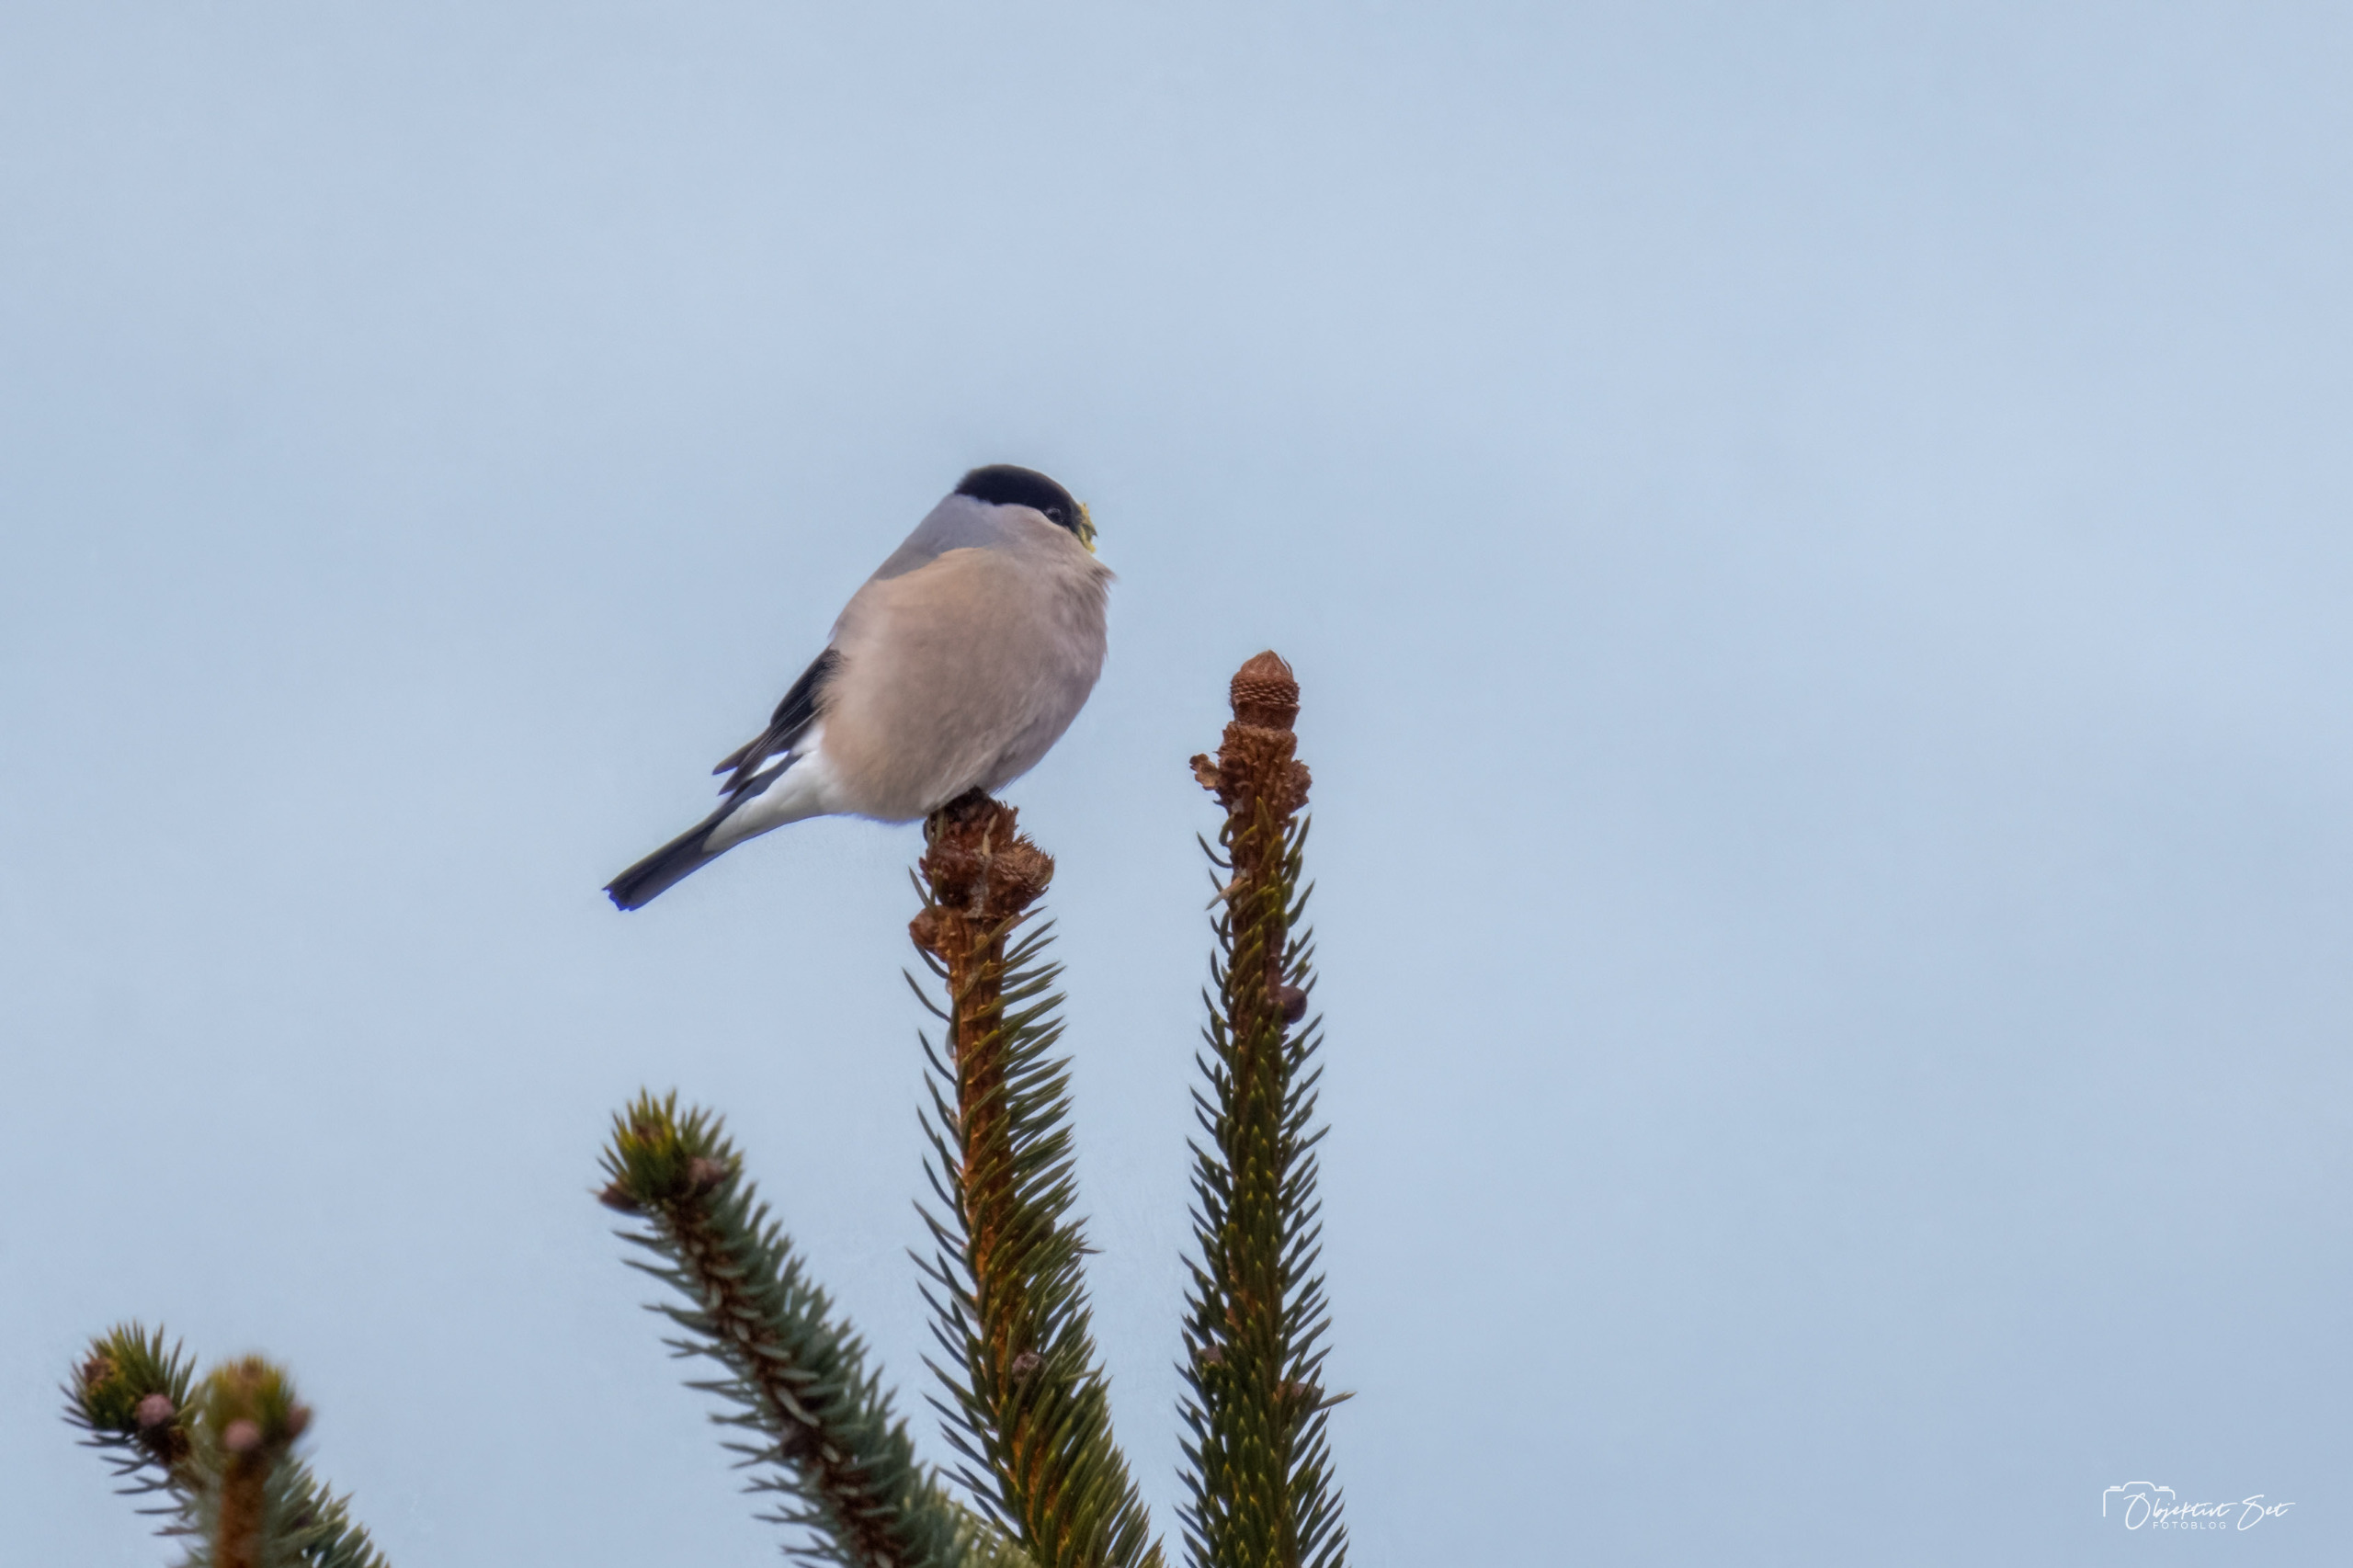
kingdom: Animalia
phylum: Chordata
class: Aves
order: Passeriformes
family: Fringillidae
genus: Pyrrhula
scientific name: Pyrrhula pyrrhula
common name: Dompap
